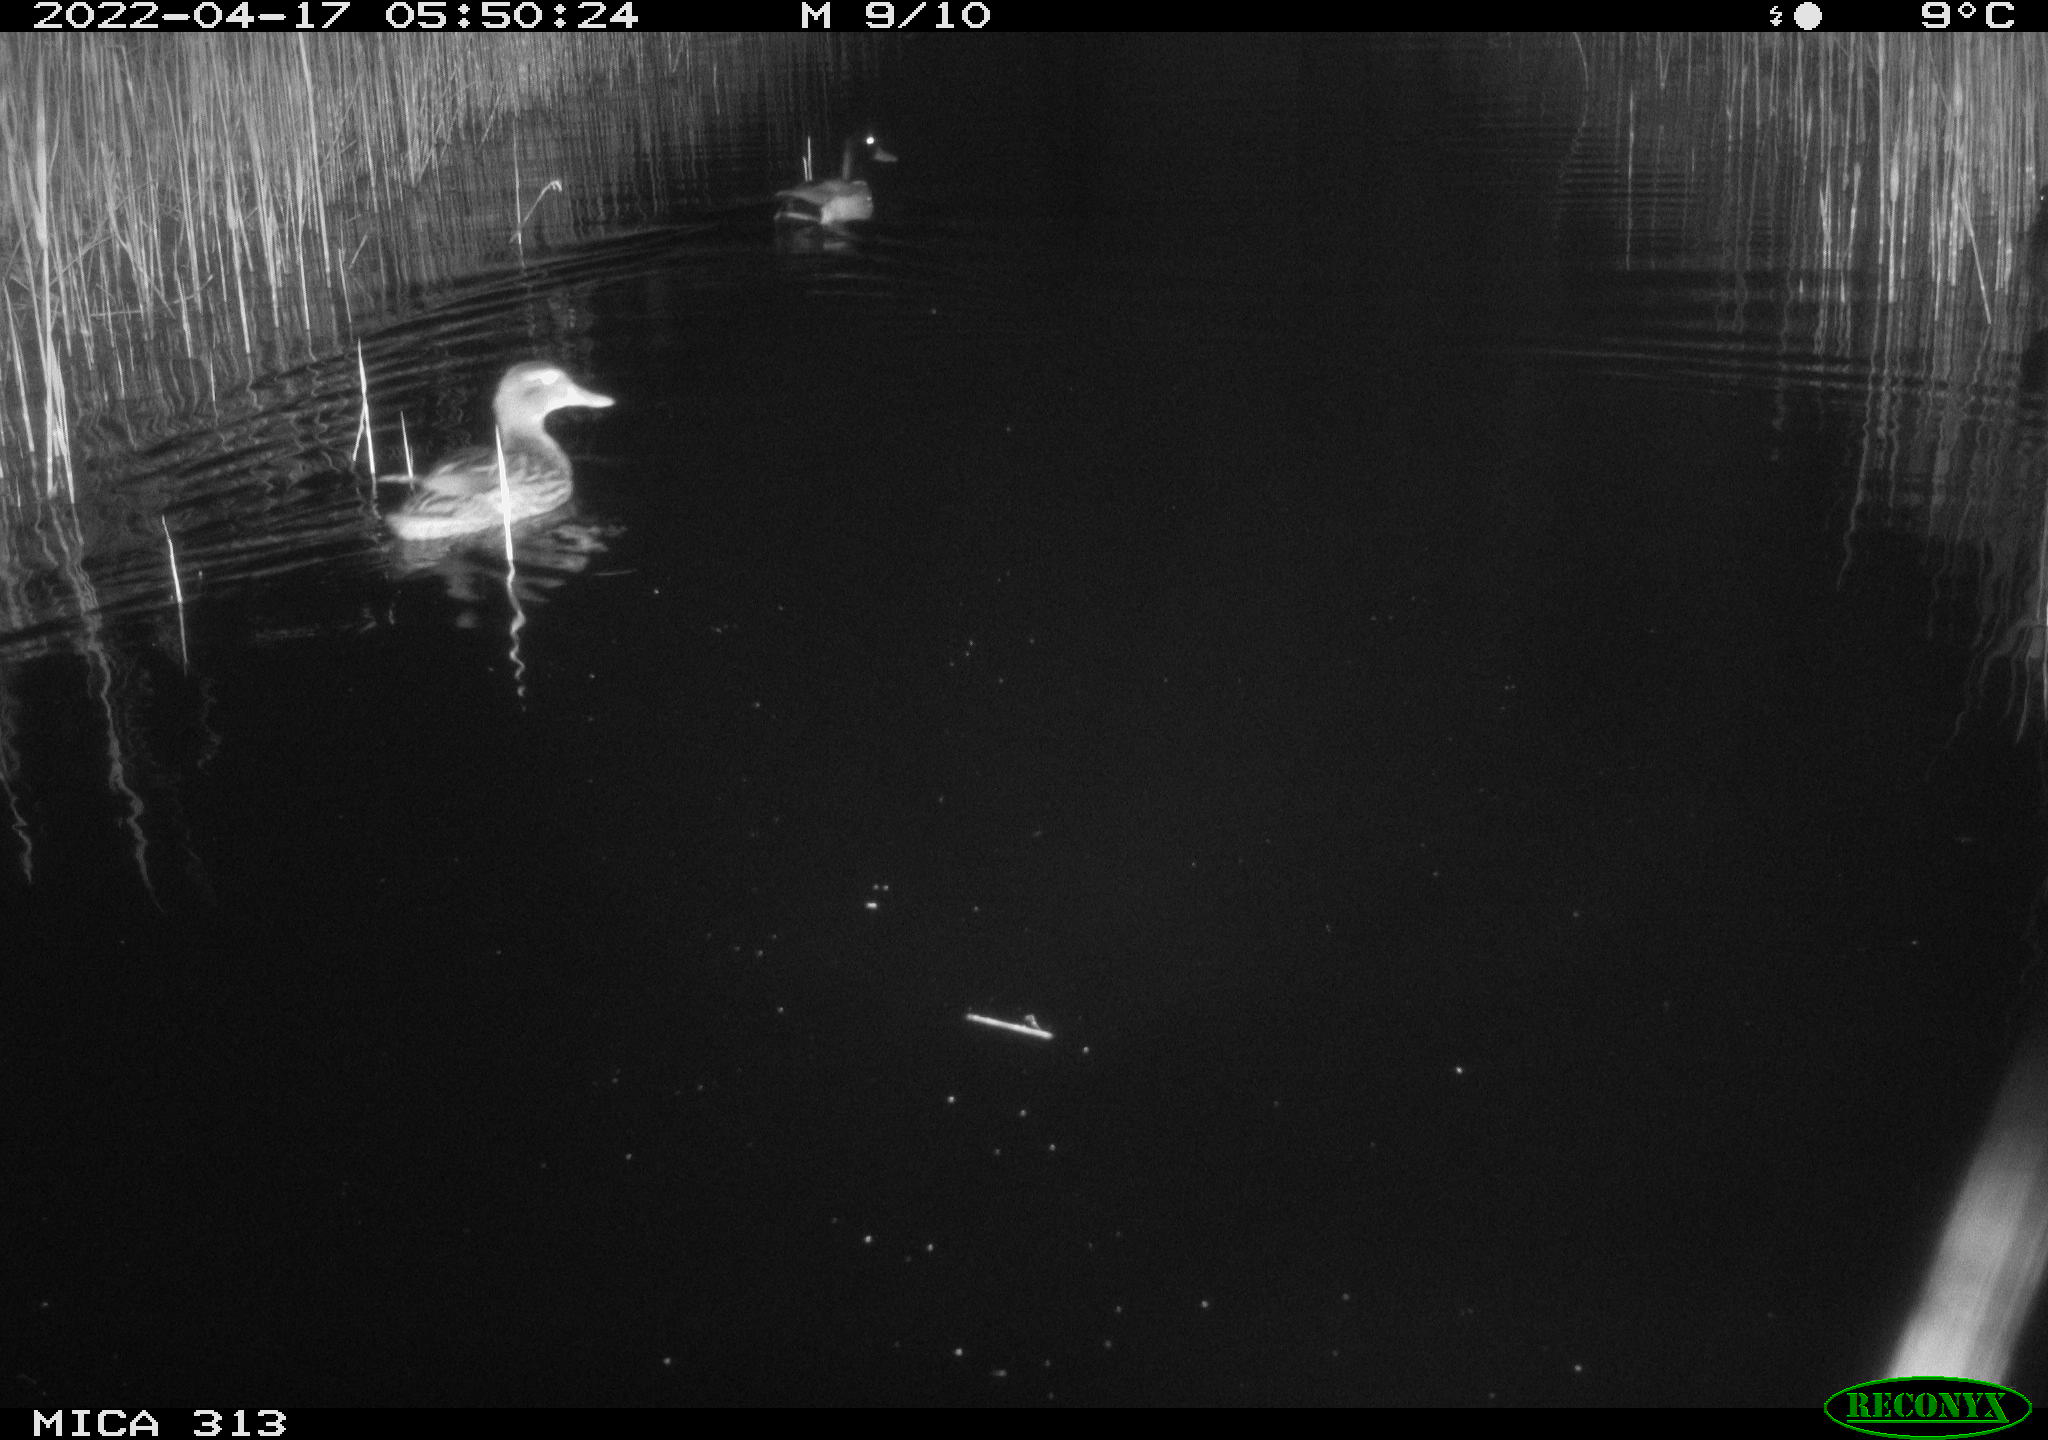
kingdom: Animalia
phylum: Chordata
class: Aves
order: Anseriformes
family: Anatidae
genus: Anas
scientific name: Anas platyrhynchos
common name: Mallard
